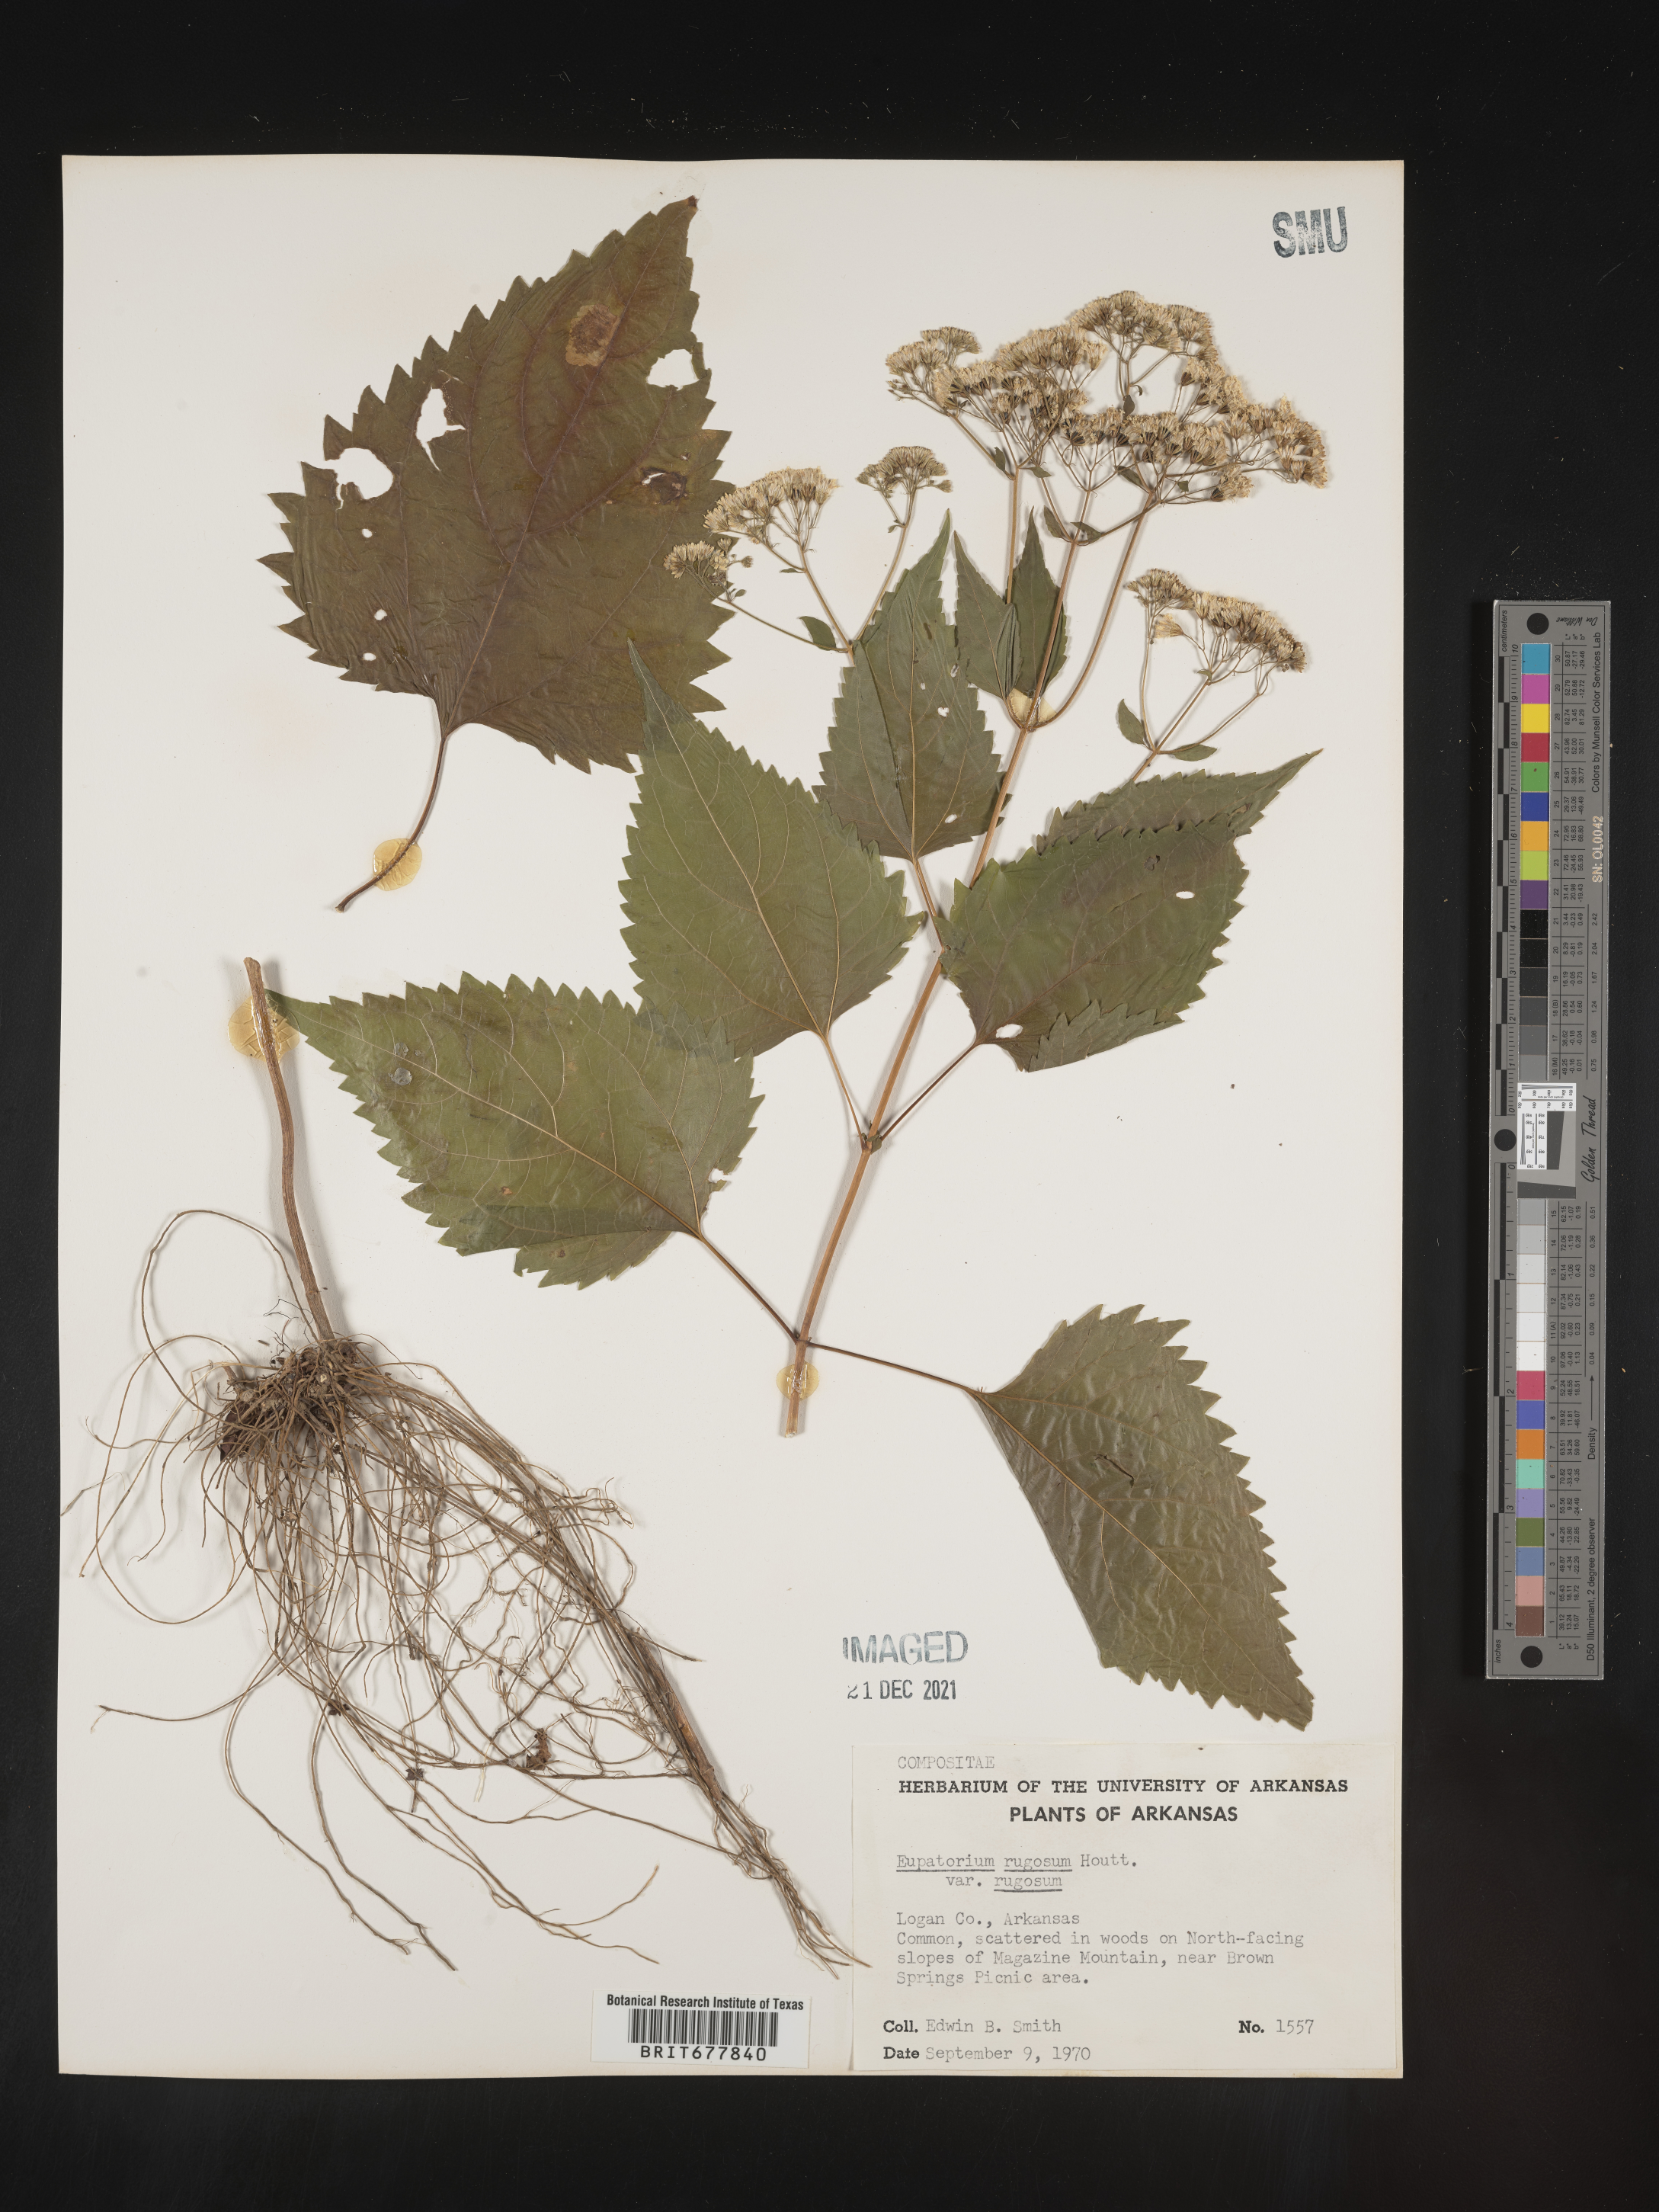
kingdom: Plantae
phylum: Tracheophyta
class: Magnoliopsida
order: Asterales
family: Asteraceae
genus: Ageratina
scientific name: Ageratina altissima
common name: White snakeroot
